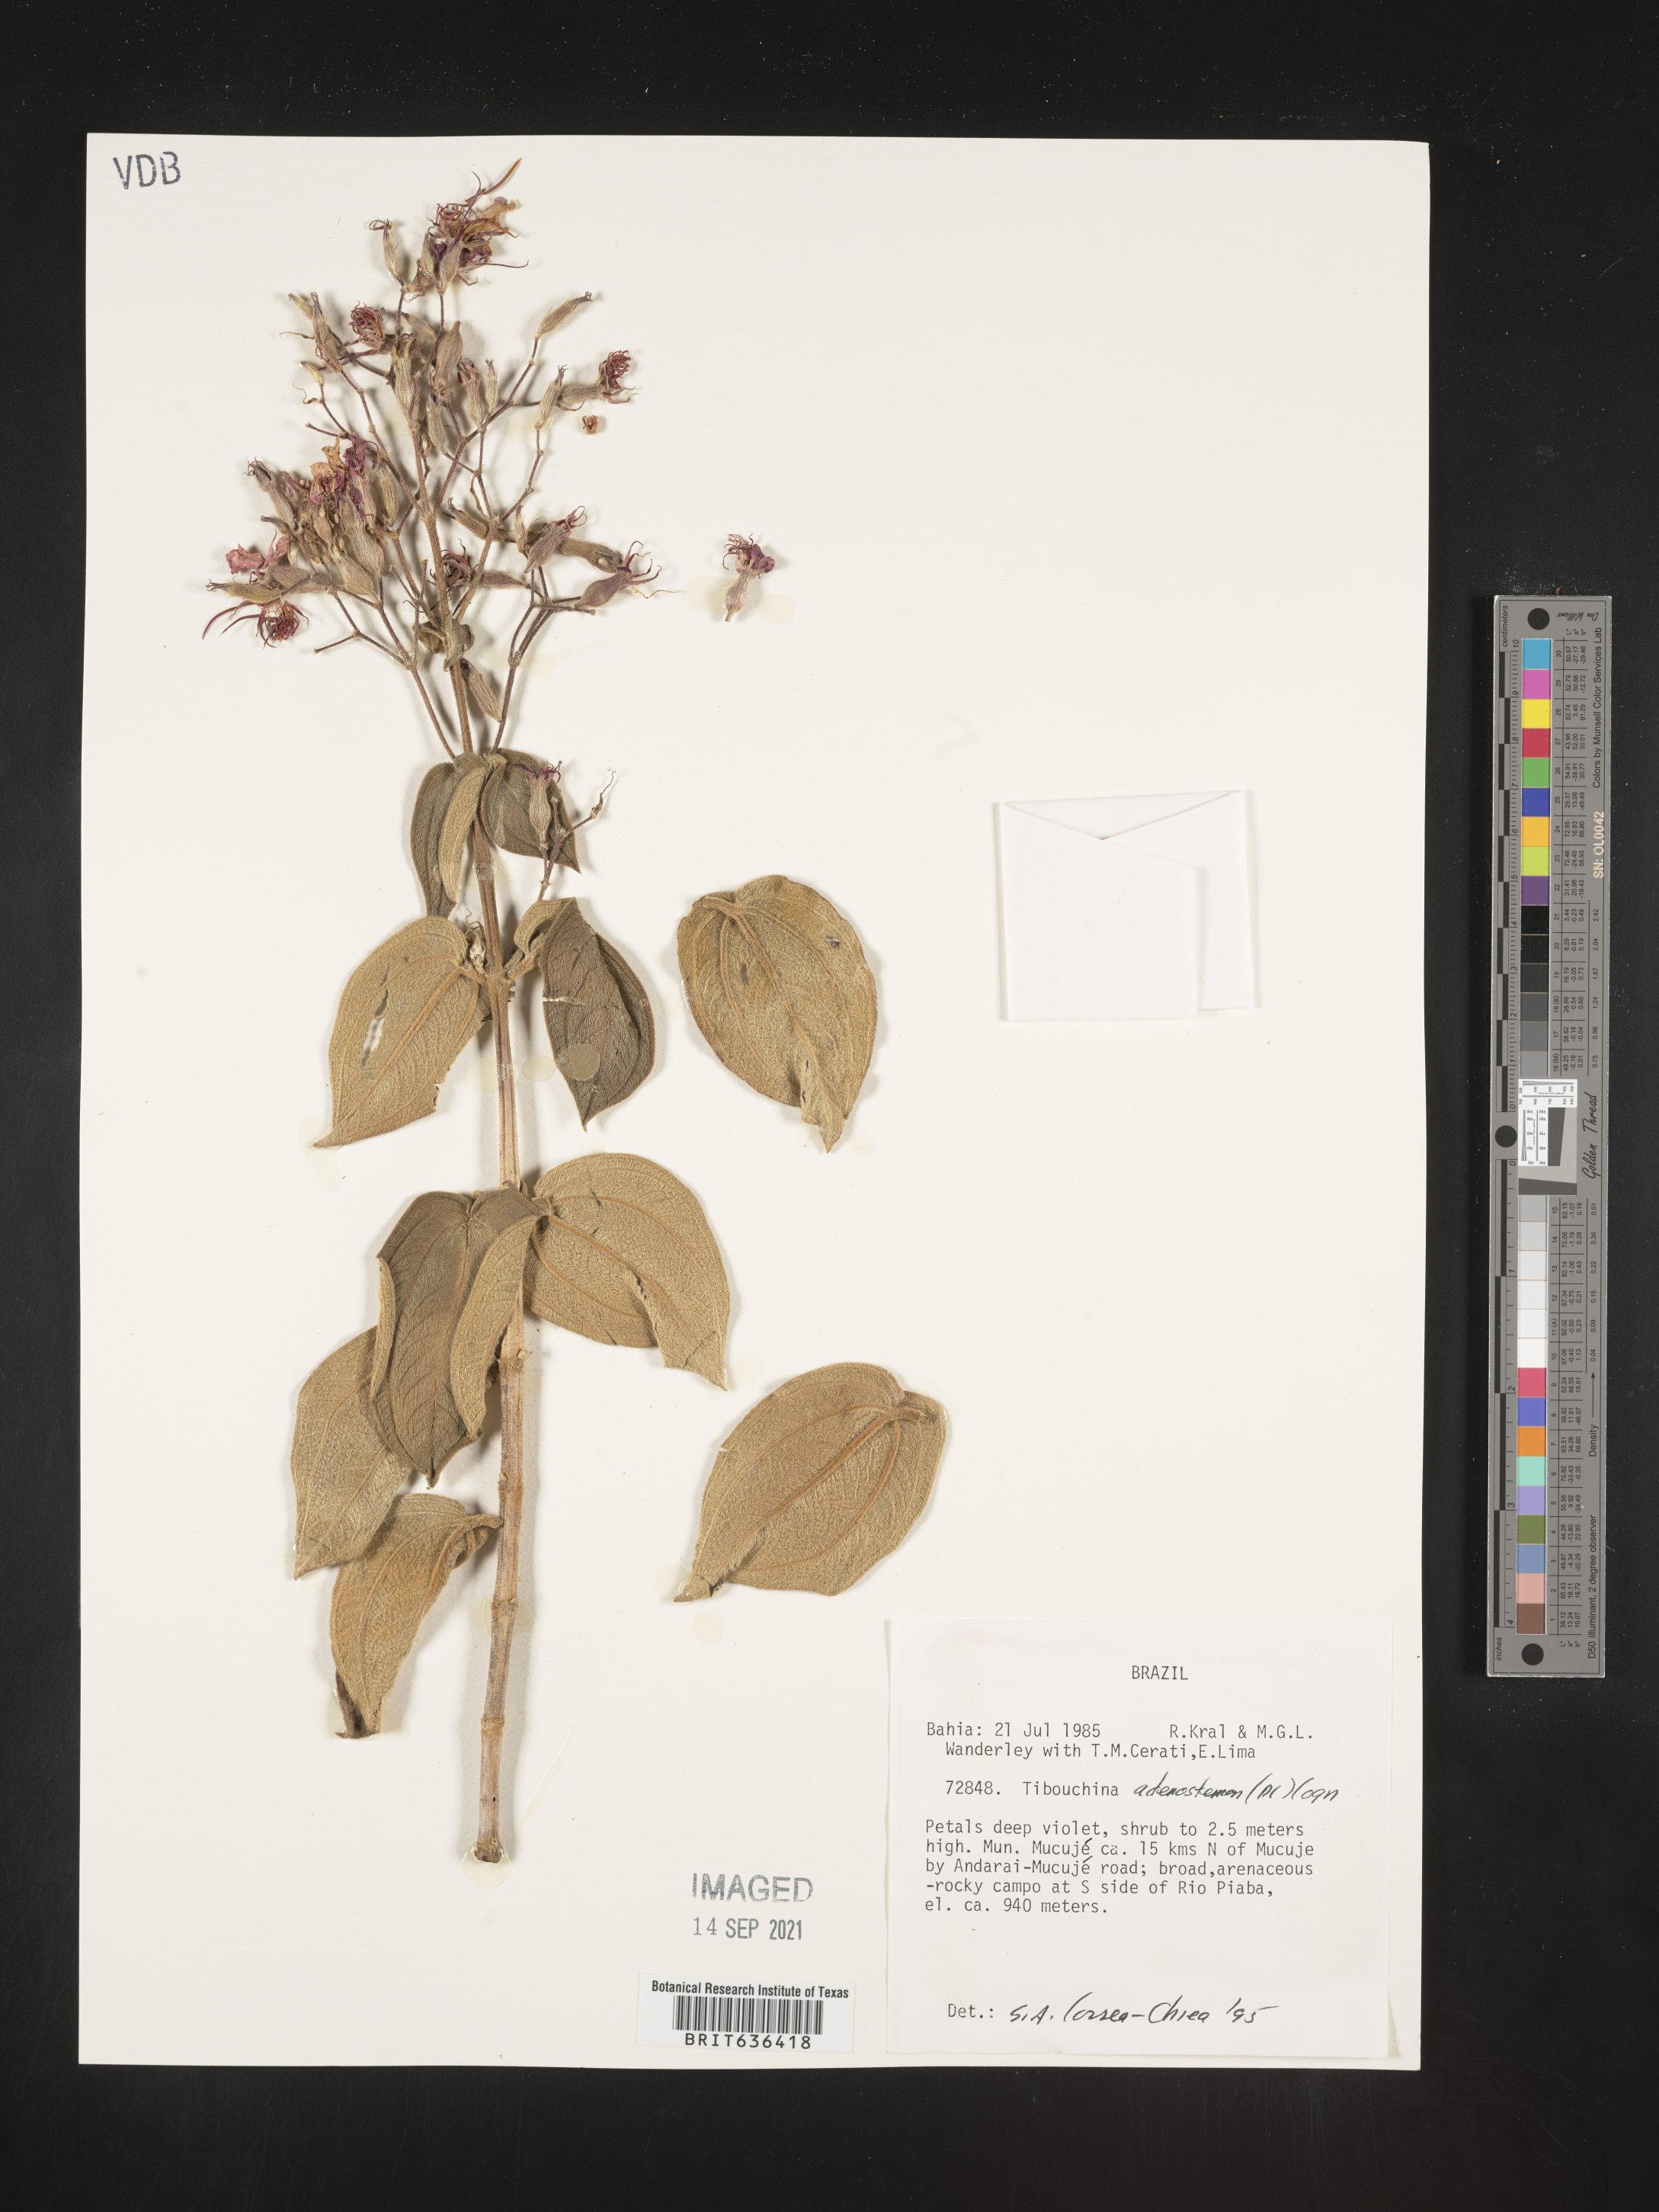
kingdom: Plantae
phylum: Tracheophyta
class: Magnoliopsida
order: Myrtales
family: Melastomataceae
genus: Tibouchina
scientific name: Tibouchina
